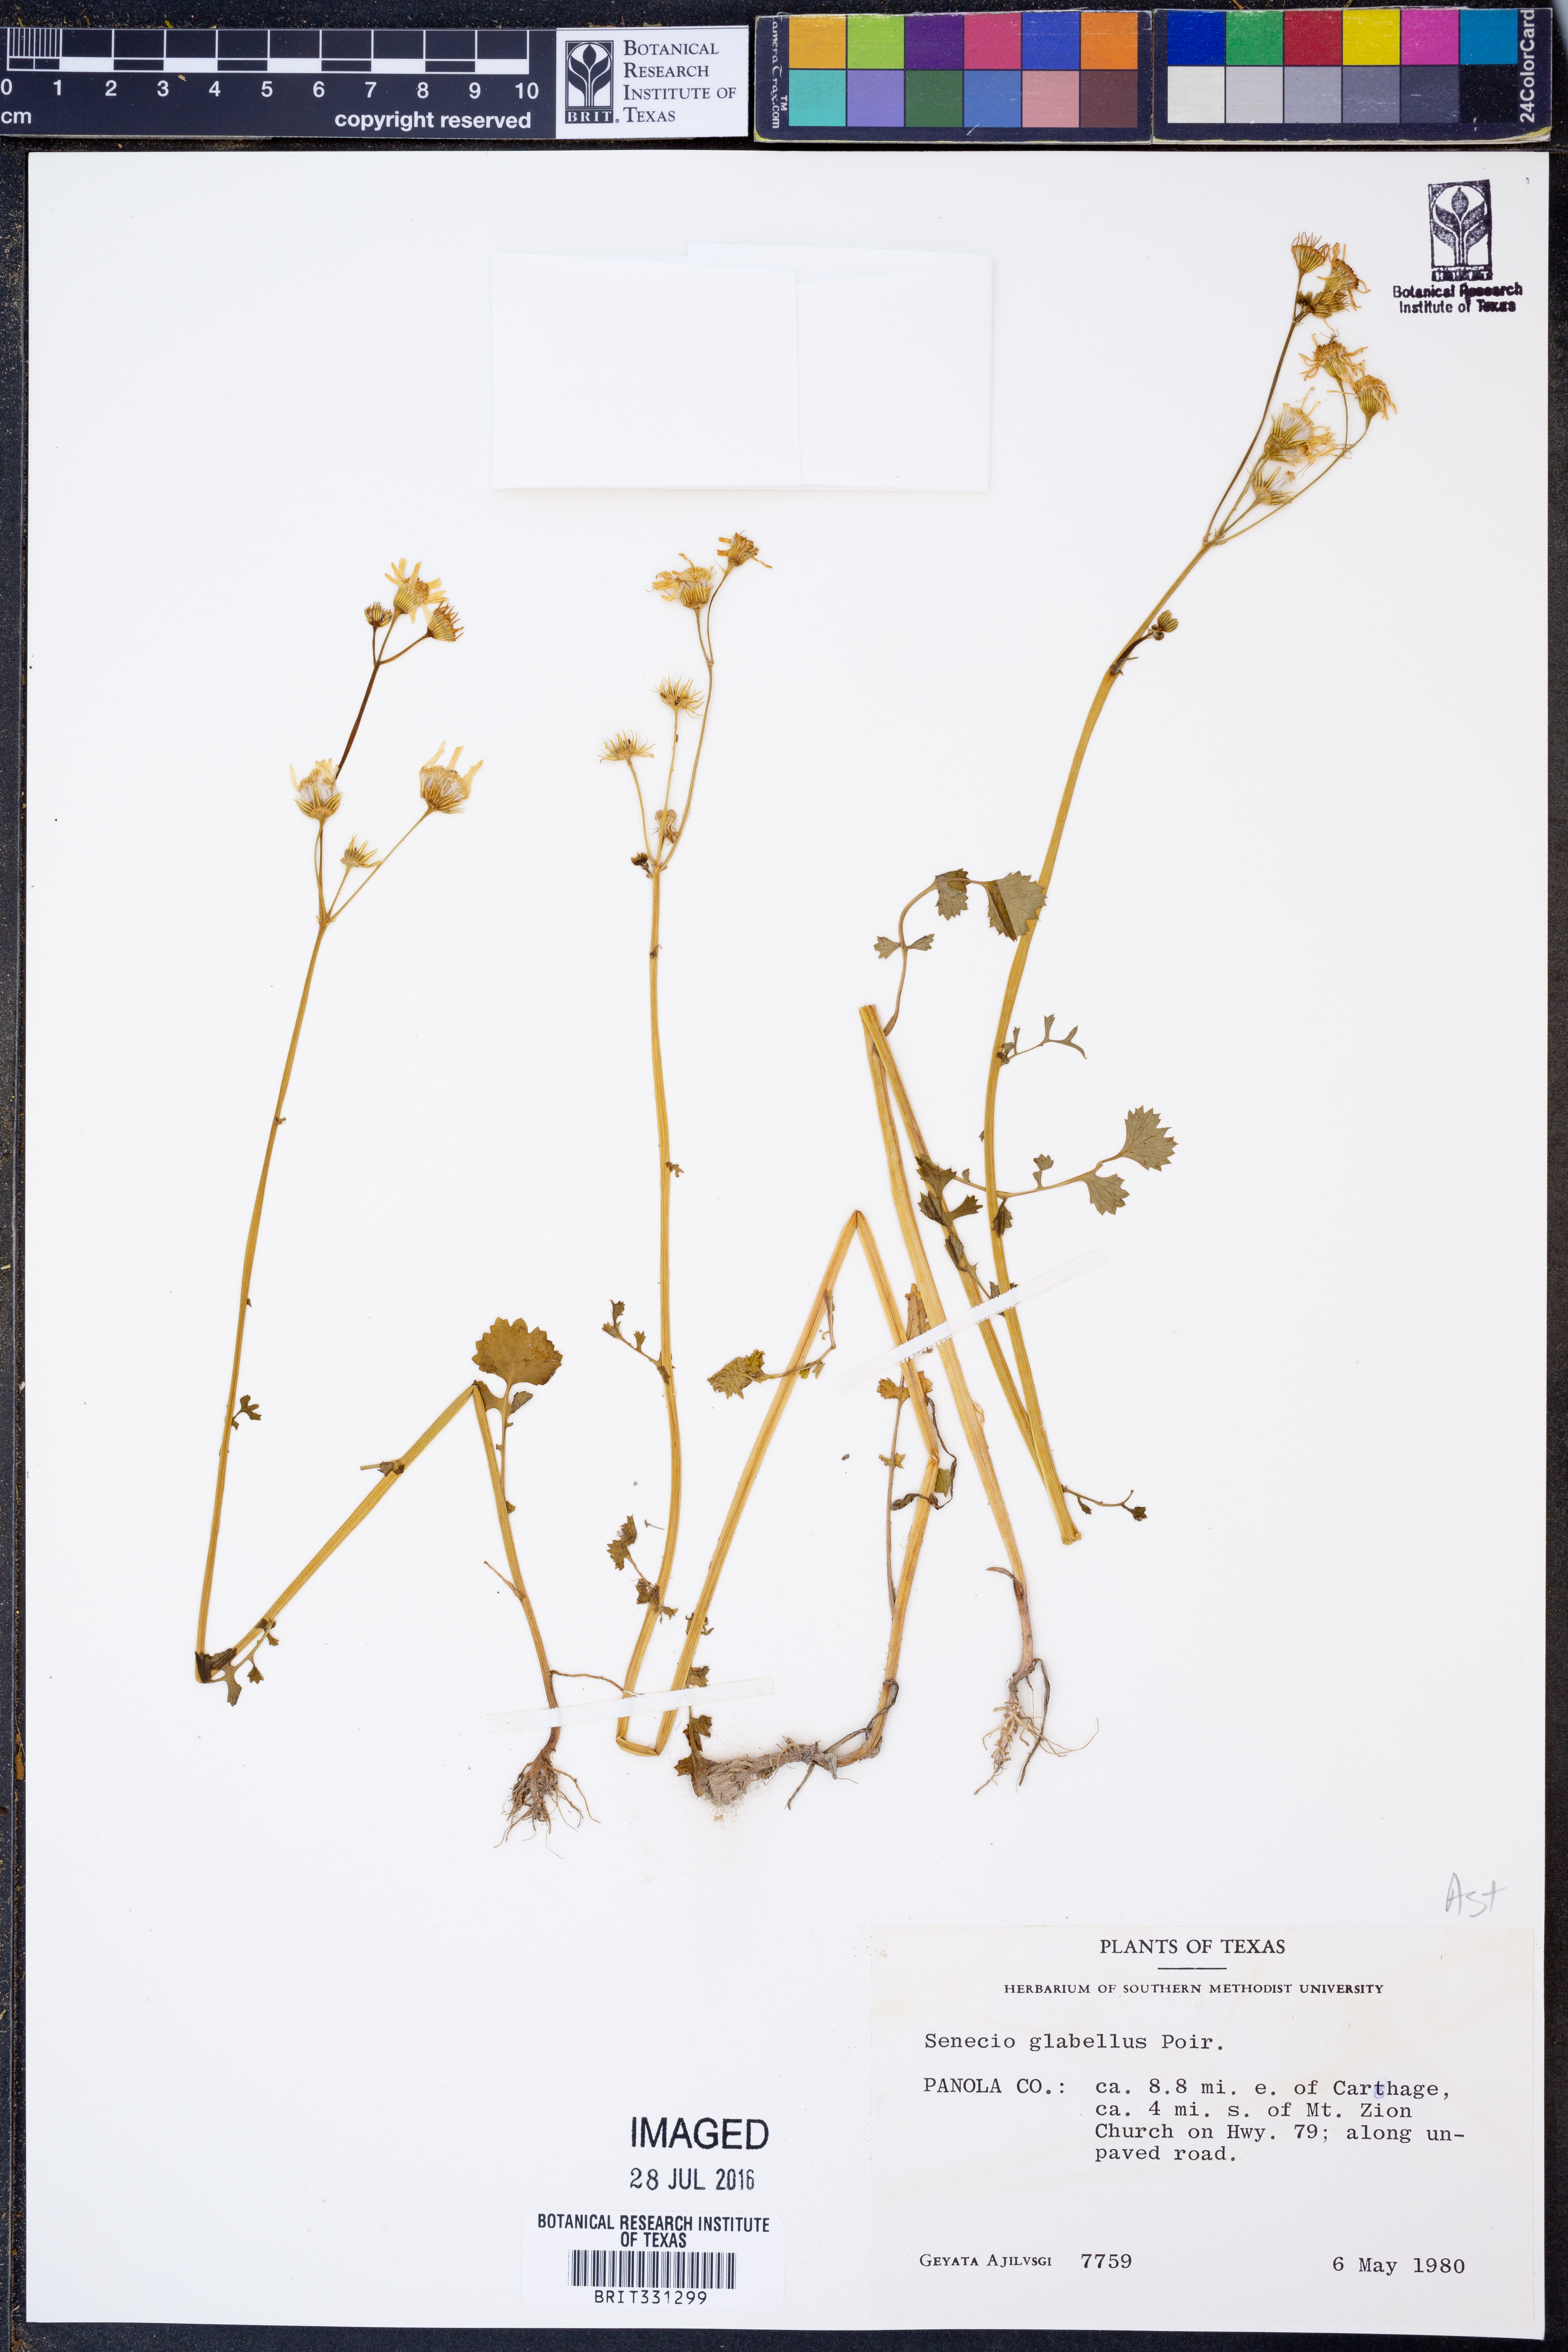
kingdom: Plantae
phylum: Tracheophyta
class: Magnoliopsida
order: Asterales
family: Asteraceae
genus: Tephroseris
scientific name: Tephroseris praticola
